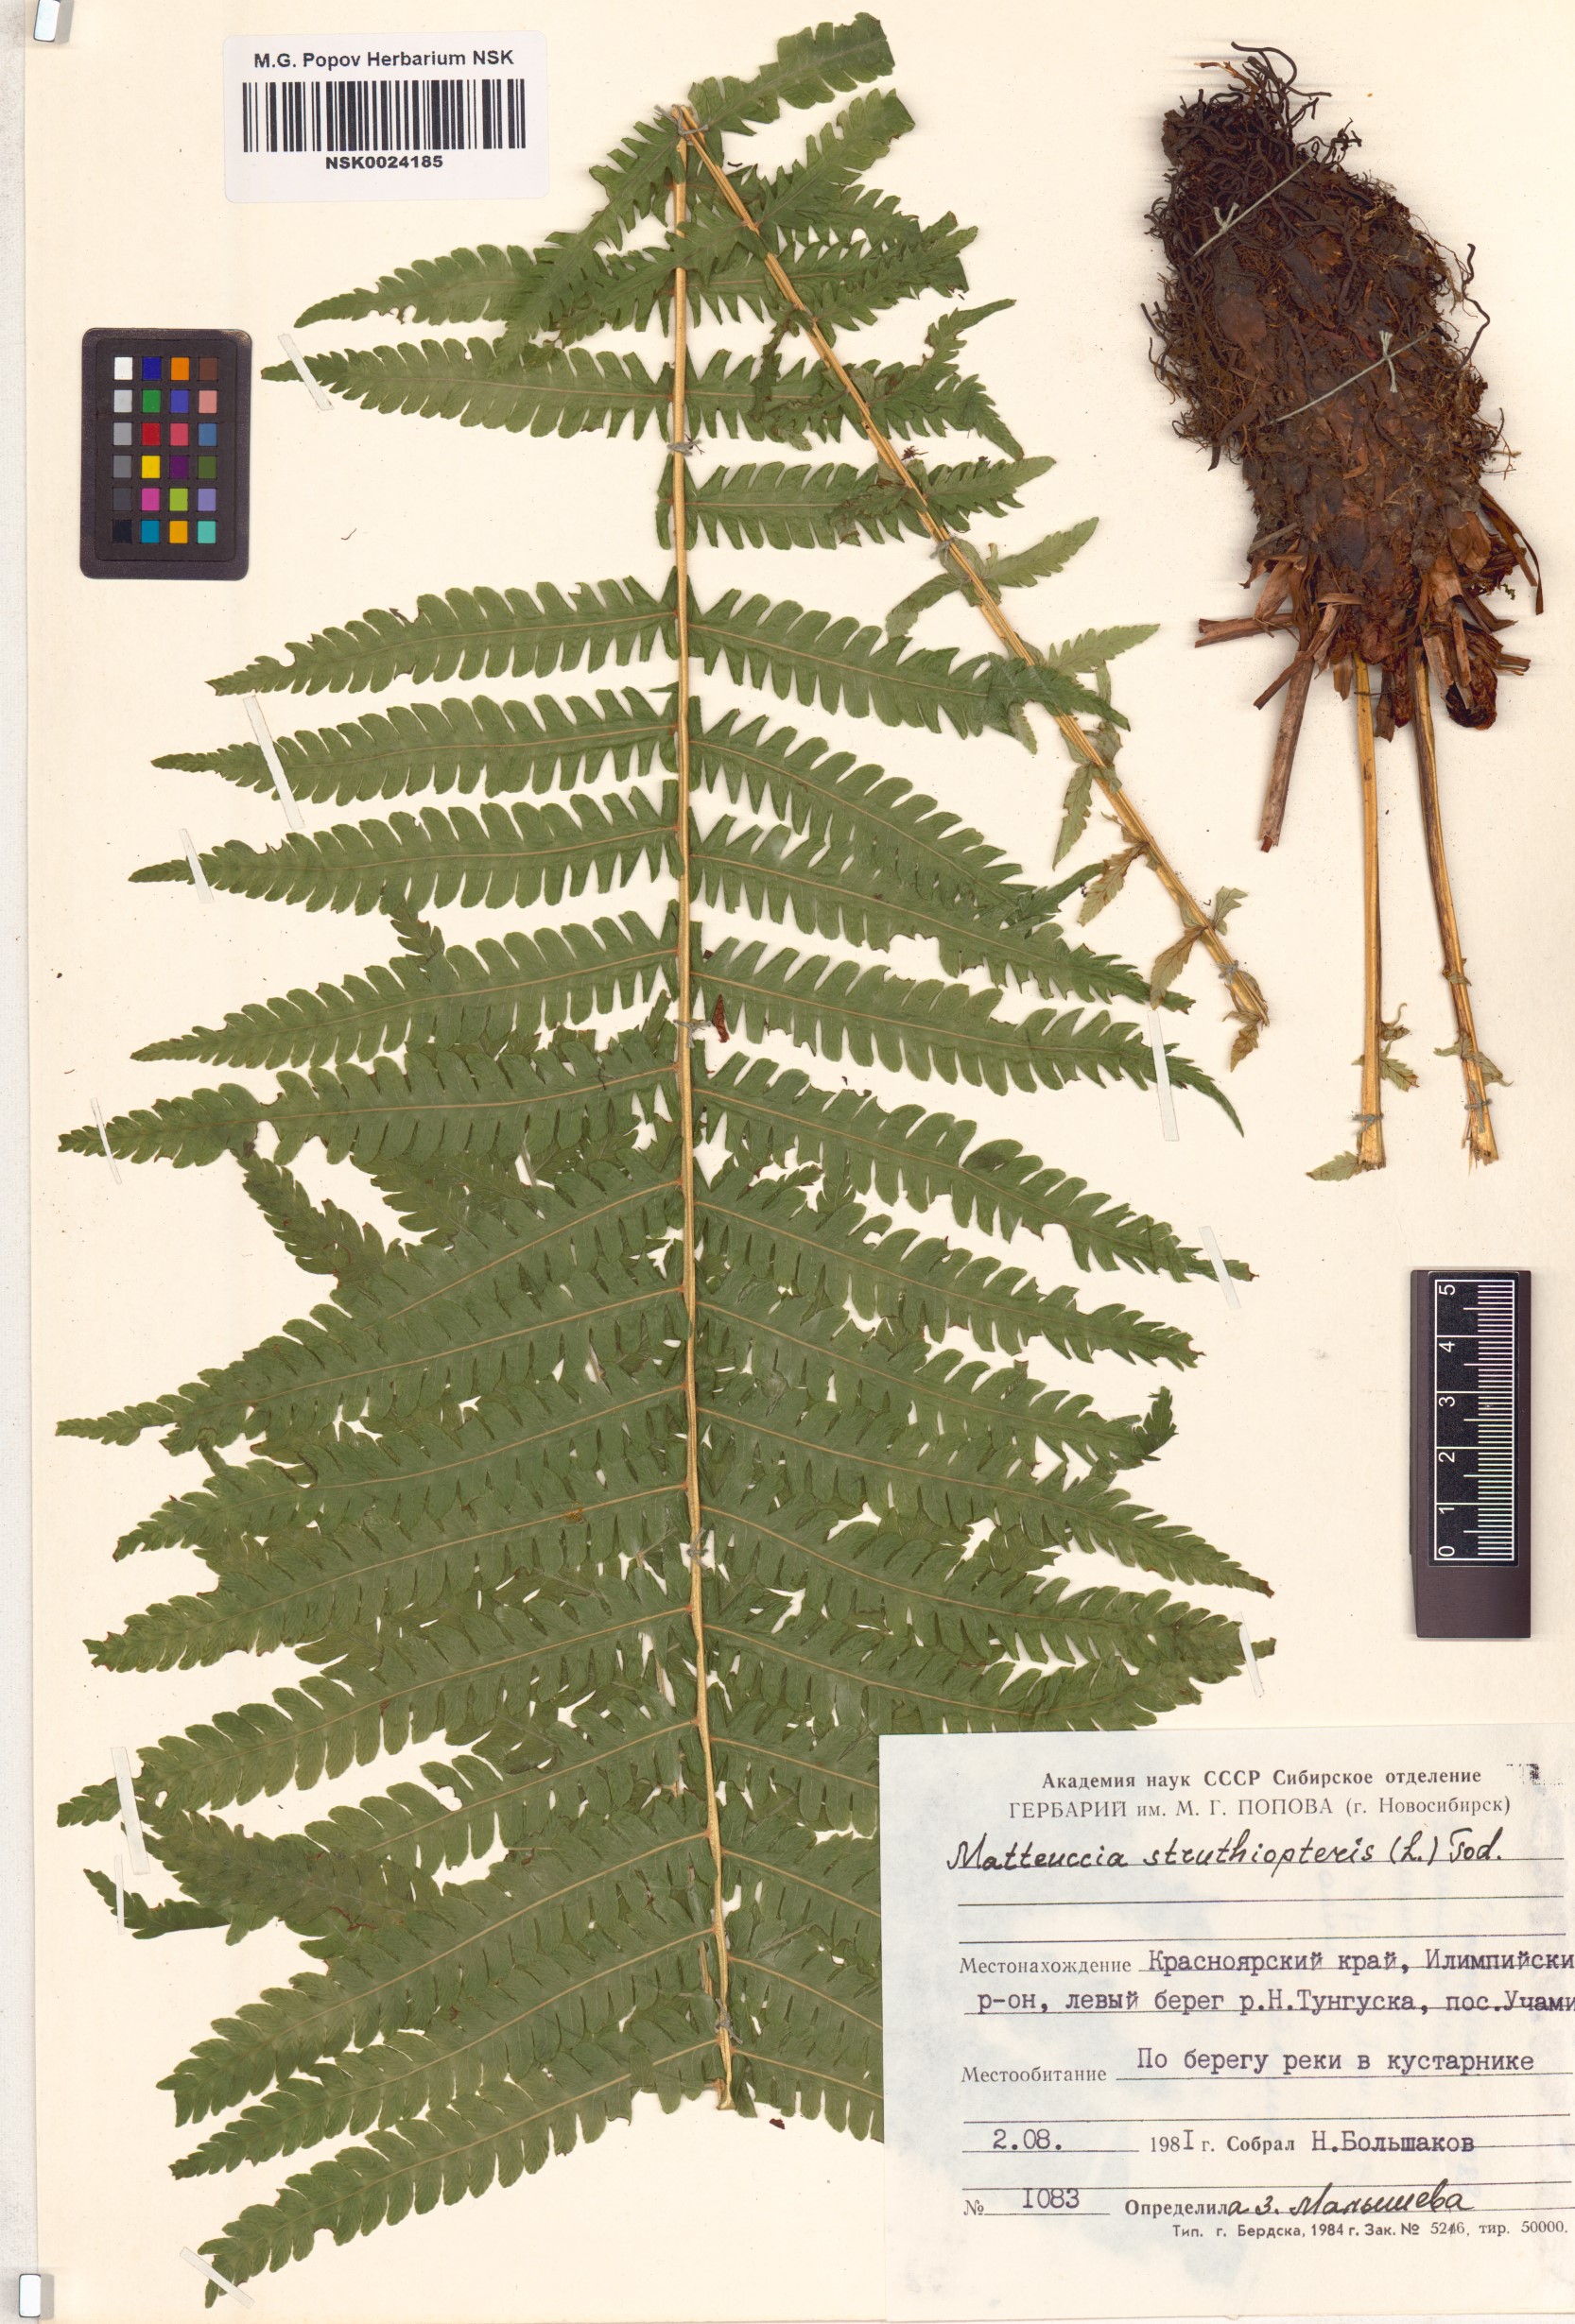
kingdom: Plantae
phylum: Tracheophyta
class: Polypodiopsida
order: Polypodiales
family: Onocleaceae
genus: Matteuccia
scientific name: Matteuccia struthiopteris
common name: Ostrich fern
